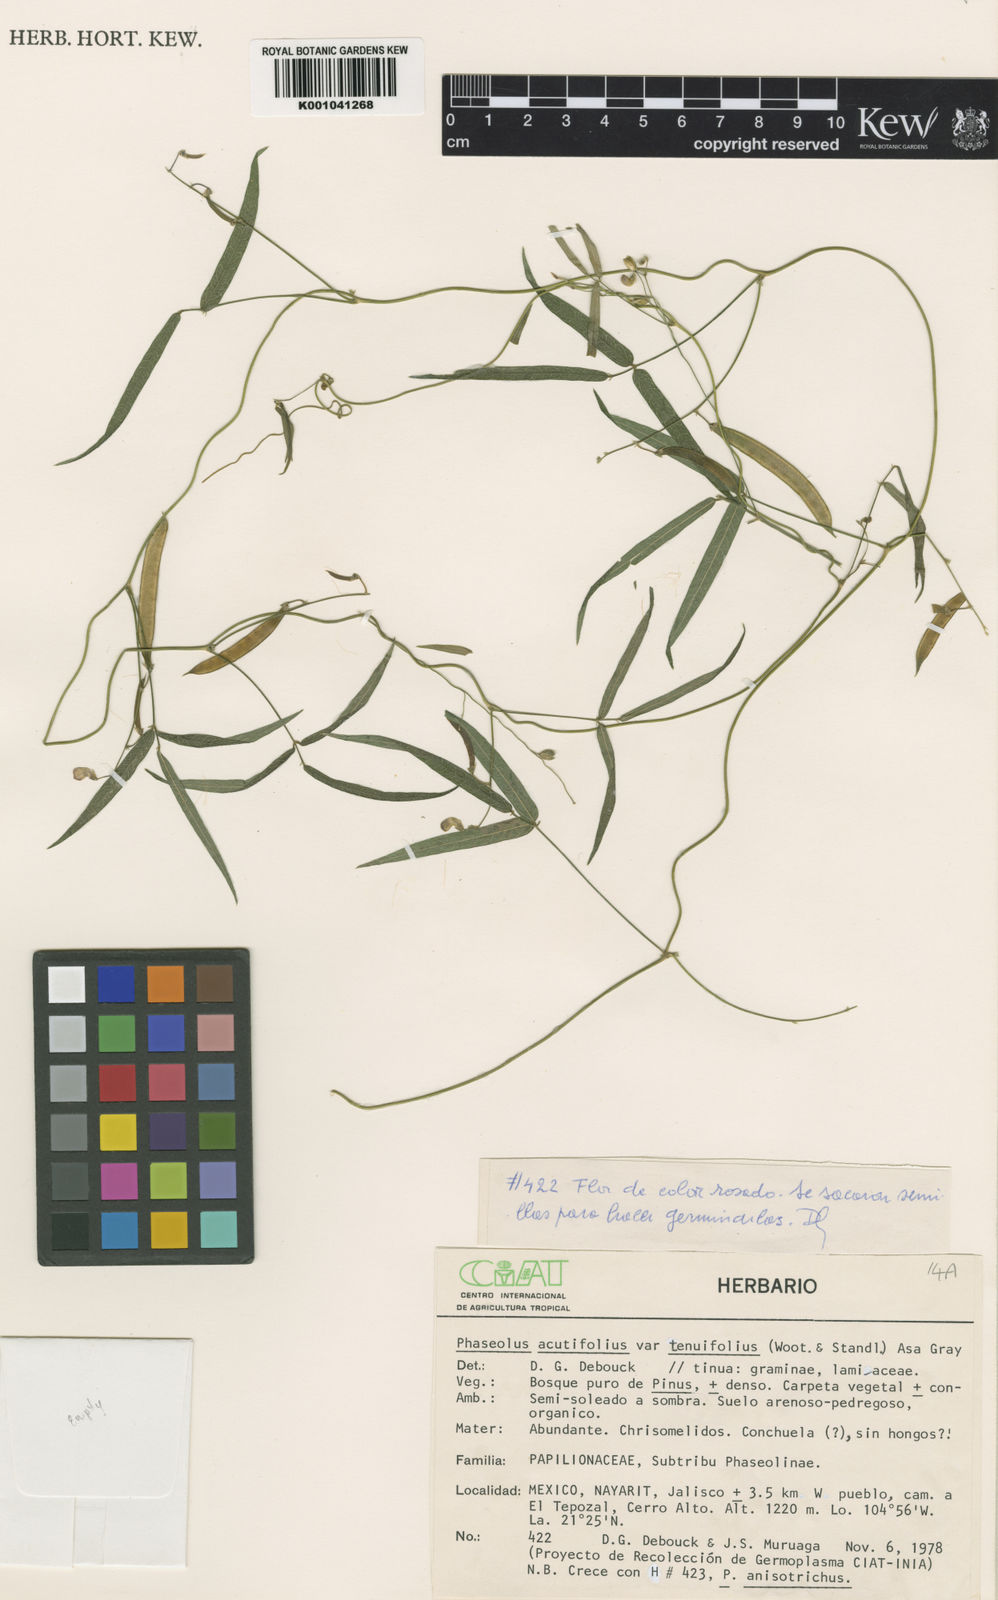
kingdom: Plantae
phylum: Tracheophyta
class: Magnoliopsida
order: Fabales
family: Fabaceae
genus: Phaseolus
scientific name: Phaseolus acutifolius
